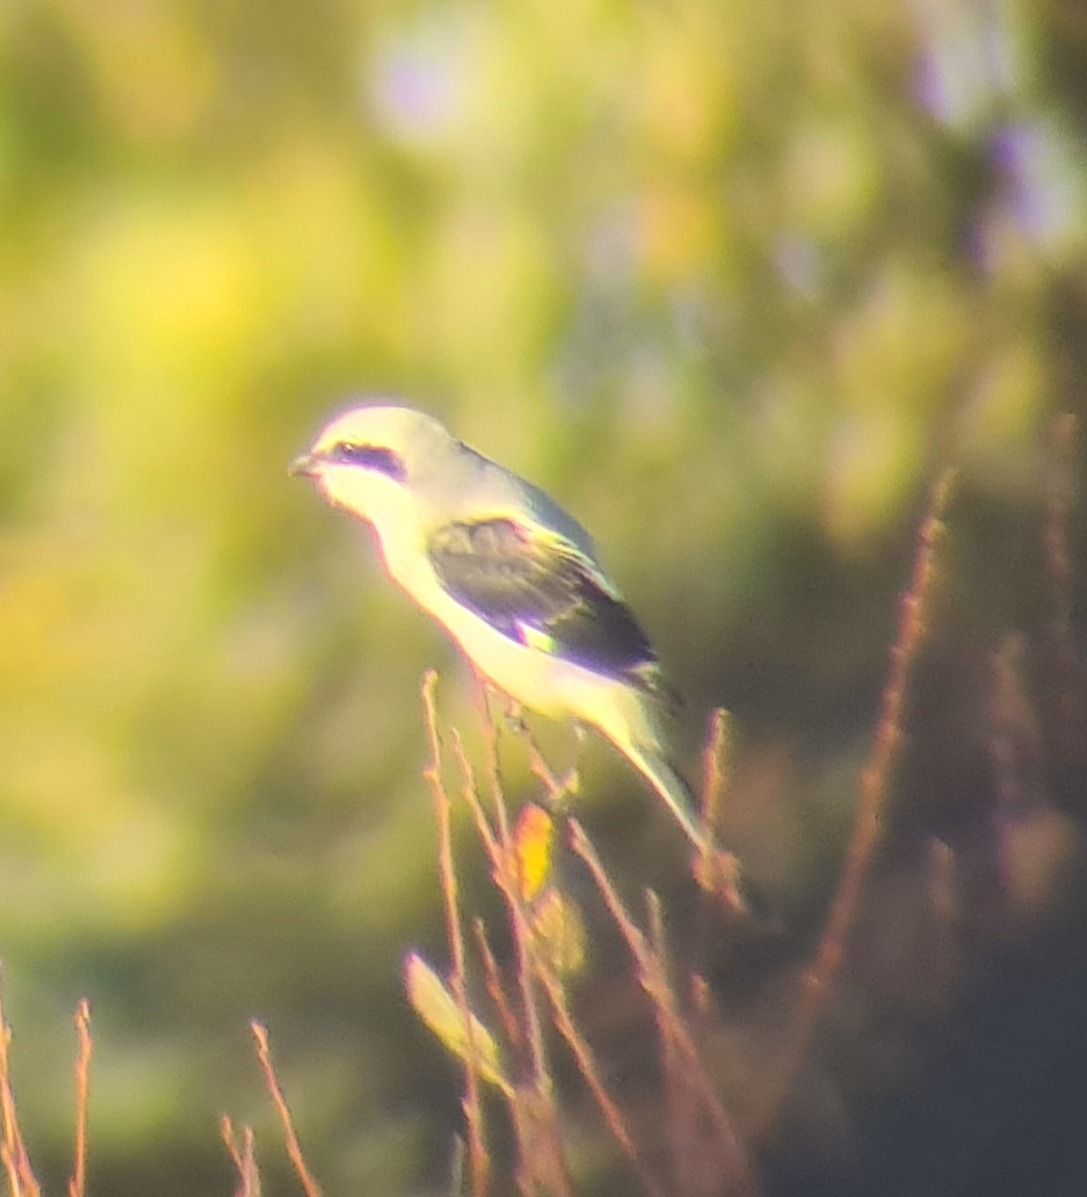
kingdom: Animalia
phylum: Chordata
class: Aves
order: Passeriformes
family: Laniidae
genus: Lanius
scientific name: Lanius excubitor
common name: Stor tornskade
